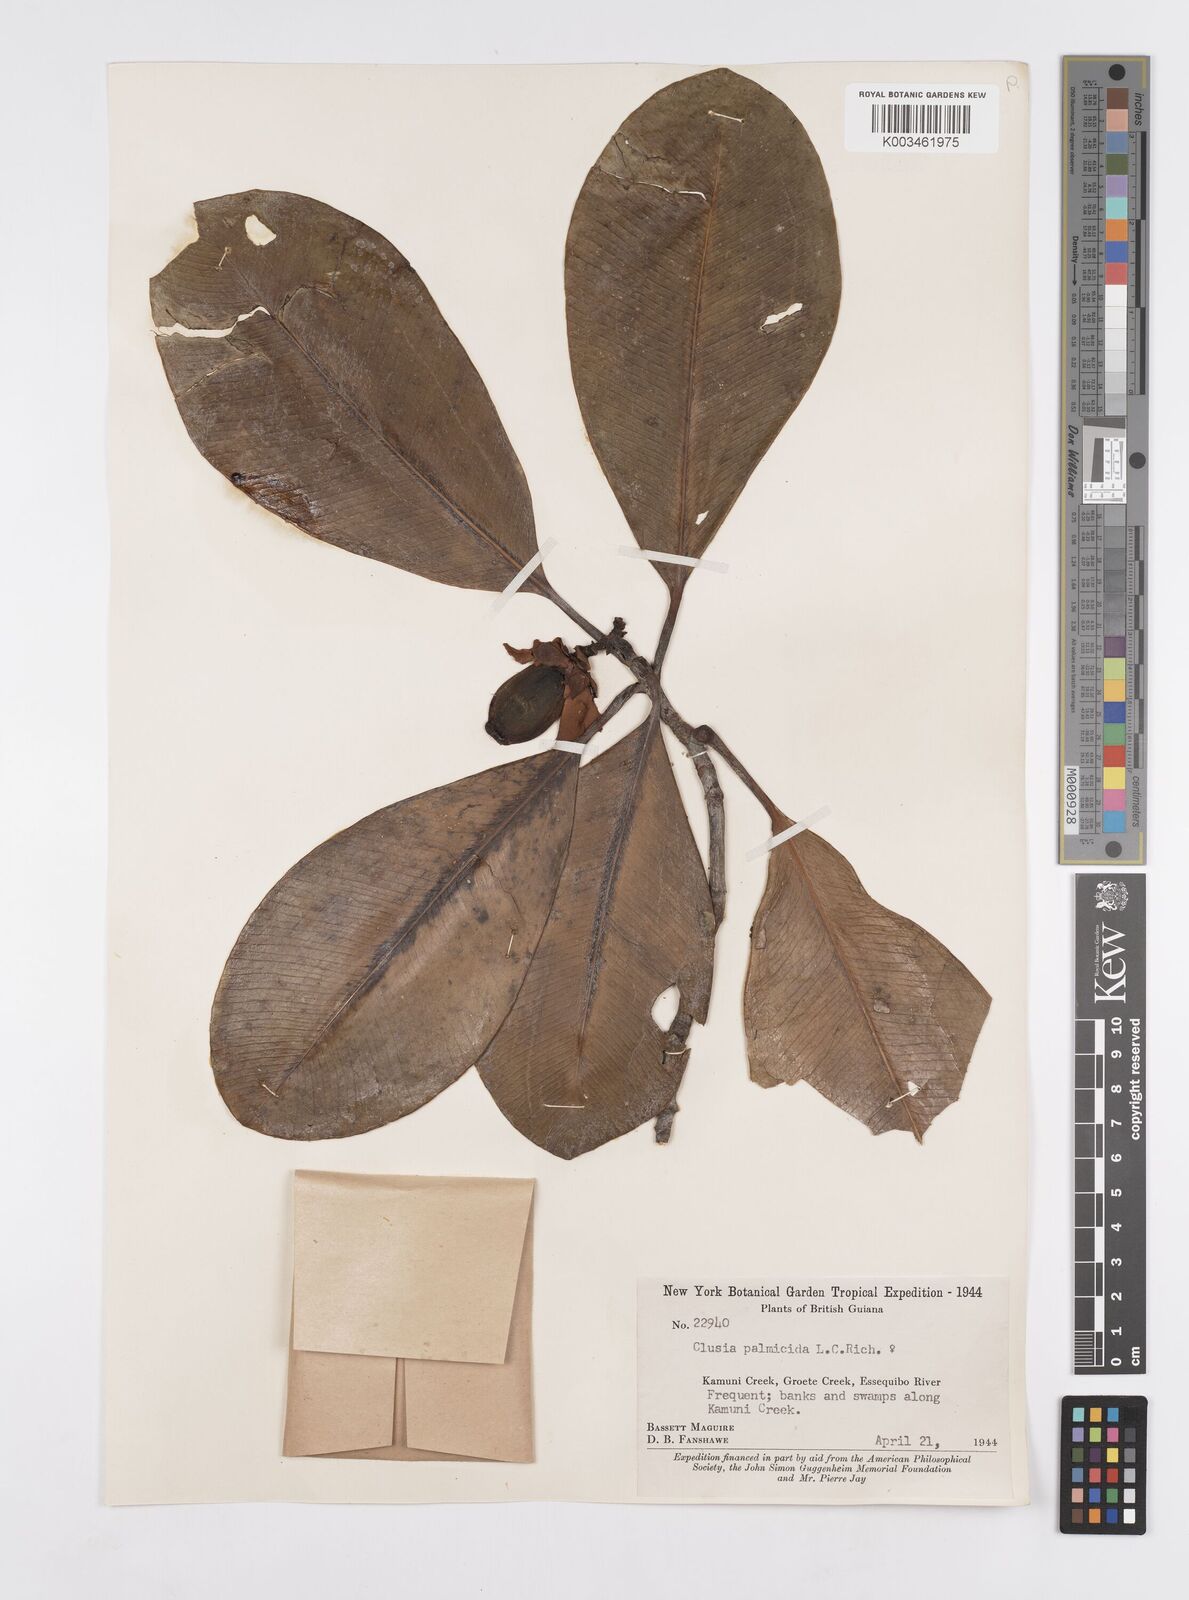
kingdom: Plantae
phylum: Tracheophyta
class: Magnoliopsida
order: Malpighiales
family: Clusiaceae
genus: Clusia
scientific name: Clusia palmicida
